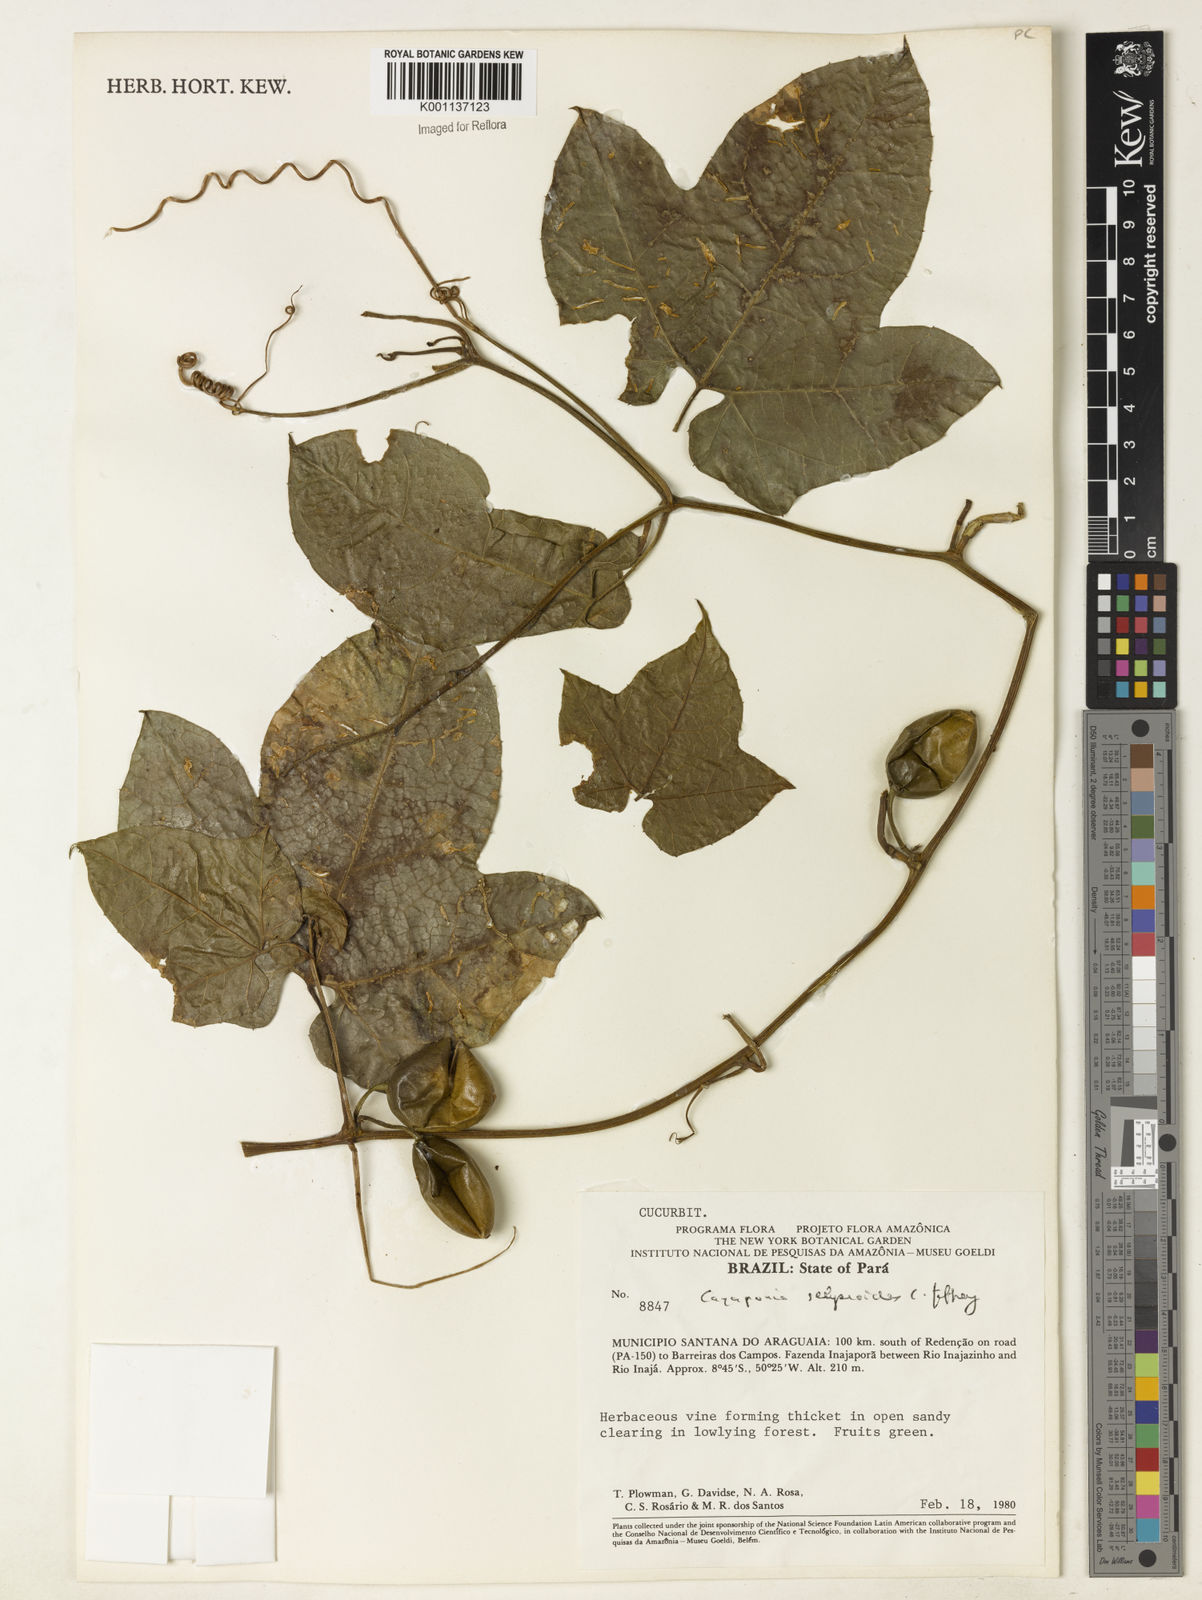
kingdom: Plantae
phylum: Tracheophyta
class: Magnoliopsida
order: Cucurbitales
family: Cucurbitaceae
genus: Cayaponia
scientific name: Cayaponia selysioides
